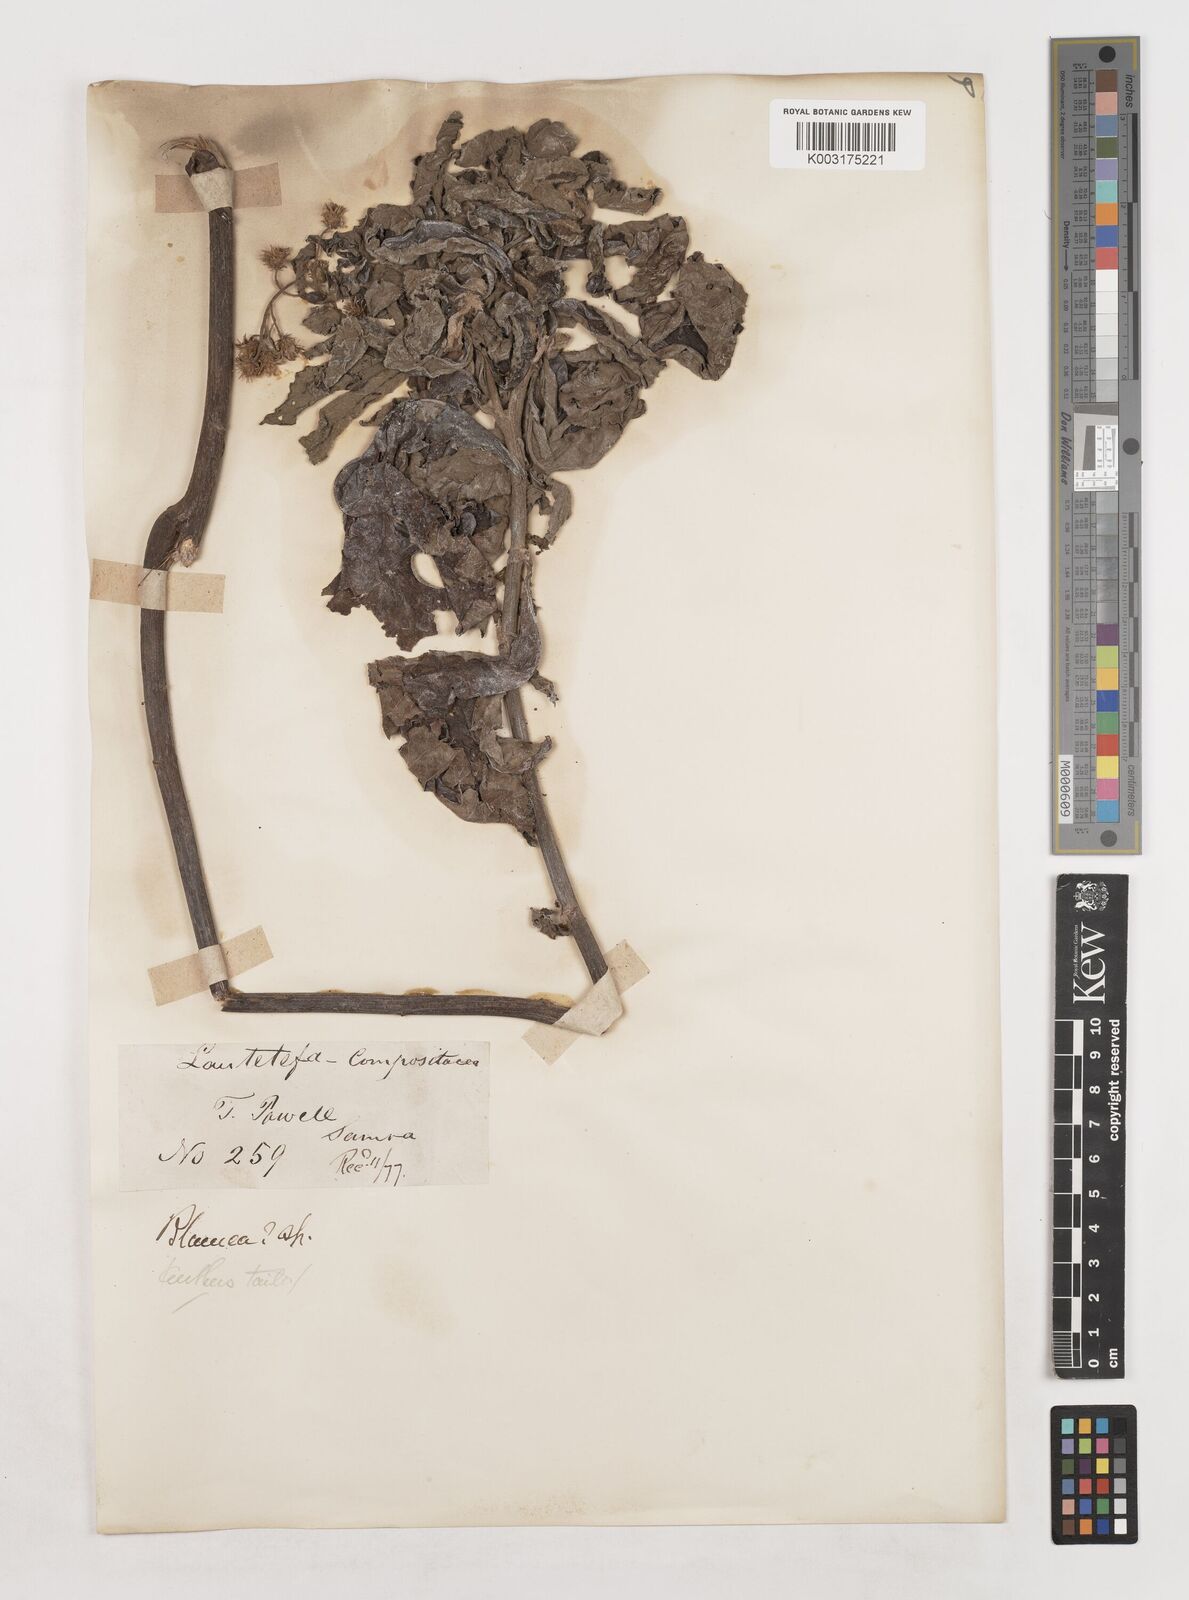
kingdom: Plantae
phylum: Tracheophyta
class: Magnoliopsida
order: Asterales
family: Asteraceae
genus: Blumea
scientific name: Blumea
